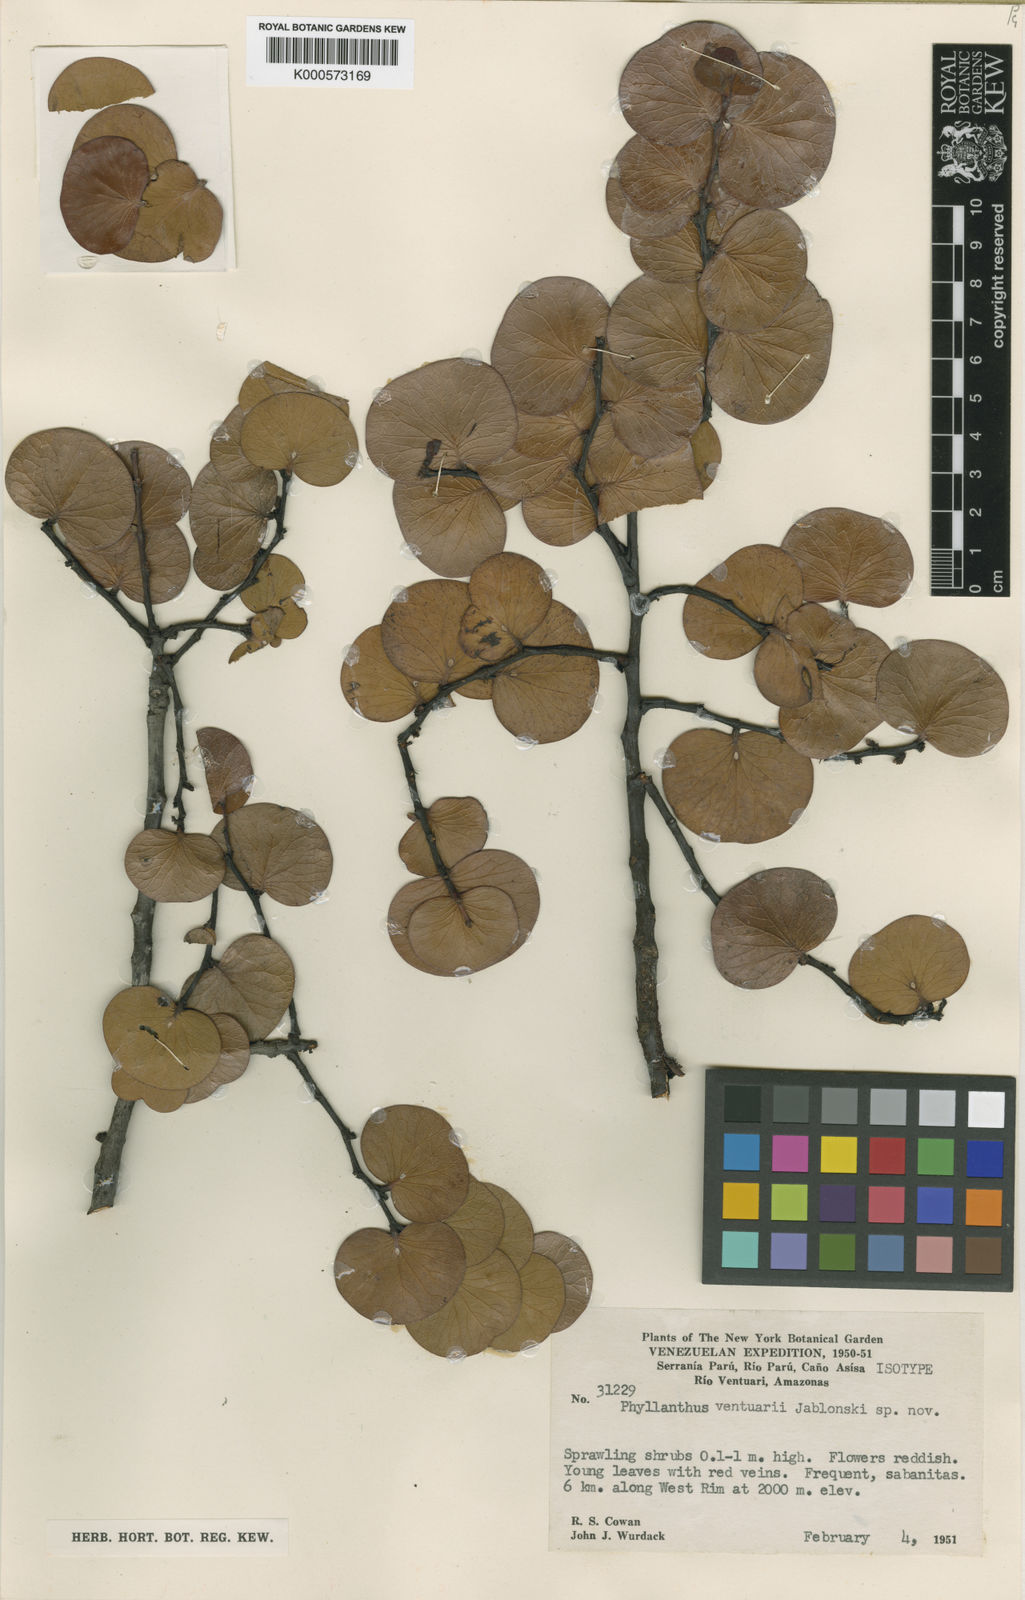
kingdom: Plantae
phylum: Tracheophyta
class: Magnoliopsida
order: Malpighiales
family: Phyllanthaceae
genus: Phyllanthus
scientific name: Phyllanthus ventuarii
